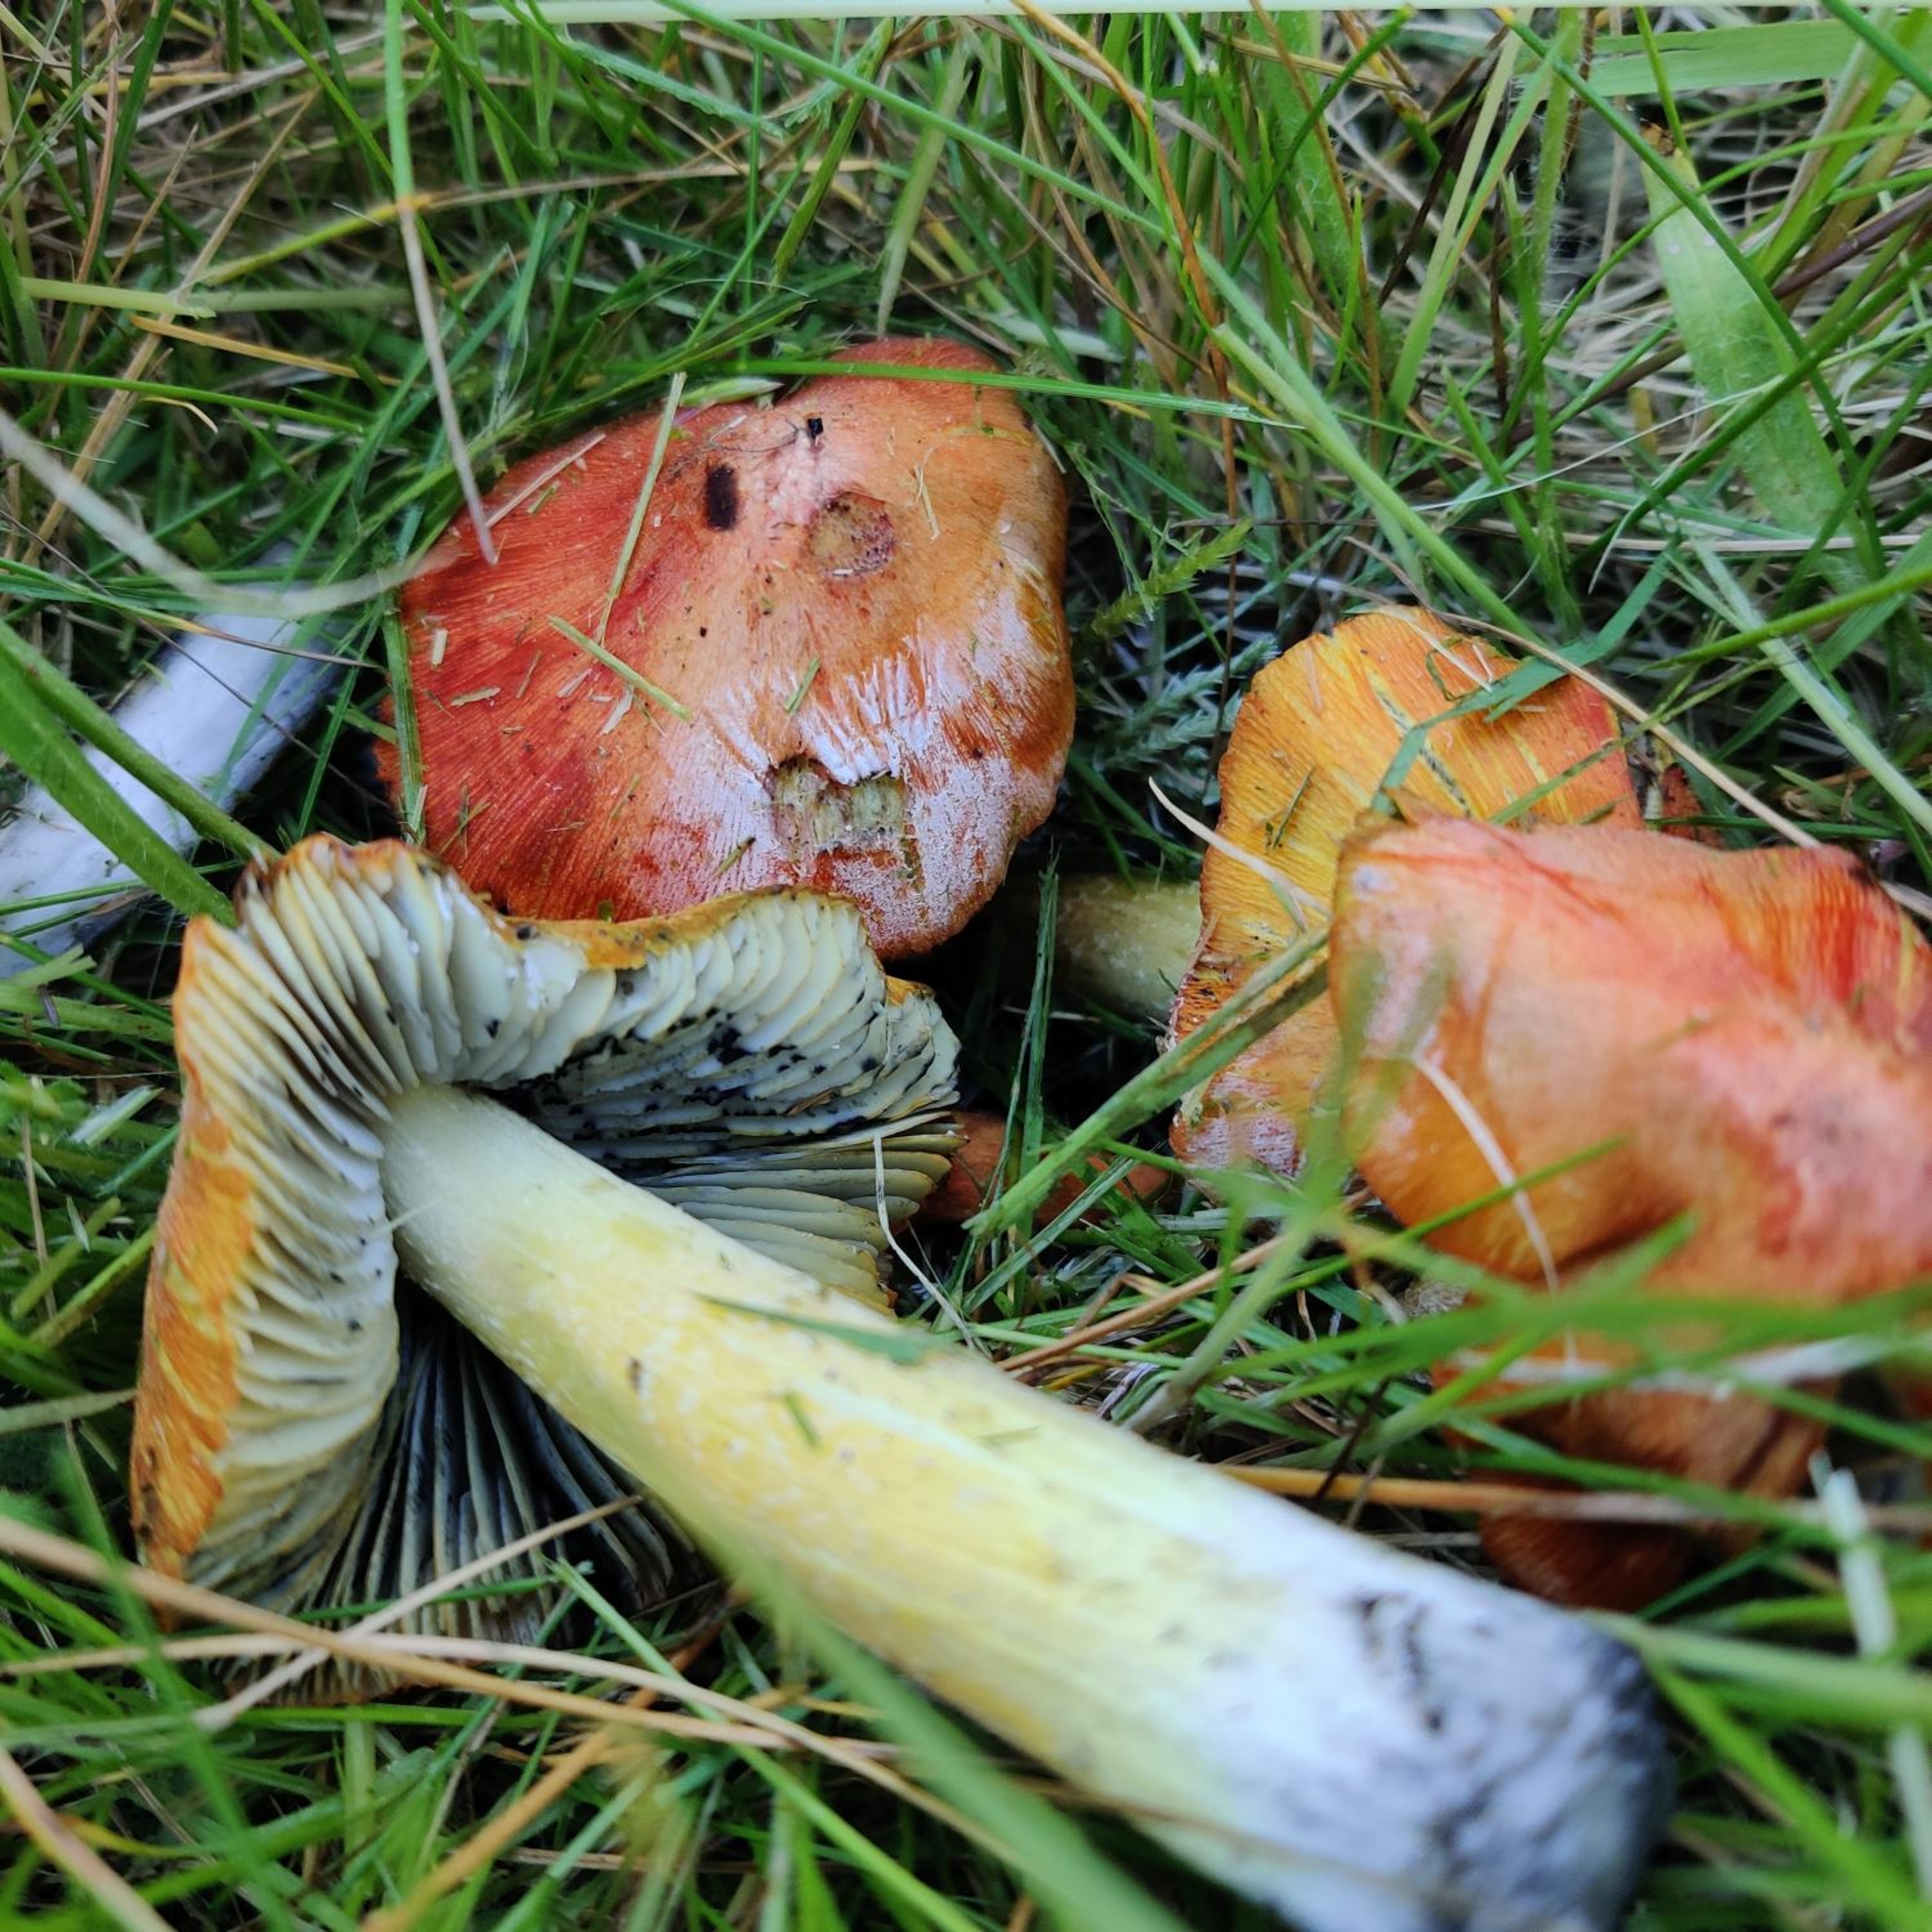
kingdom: Fungi
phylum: Basidiomycota
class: Agaricomycetes
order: Agaricales
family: Hygrophoraceae
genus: Hygrocybe
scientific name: Hygrocybe conica
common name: Kegle-vokshat (varietet
